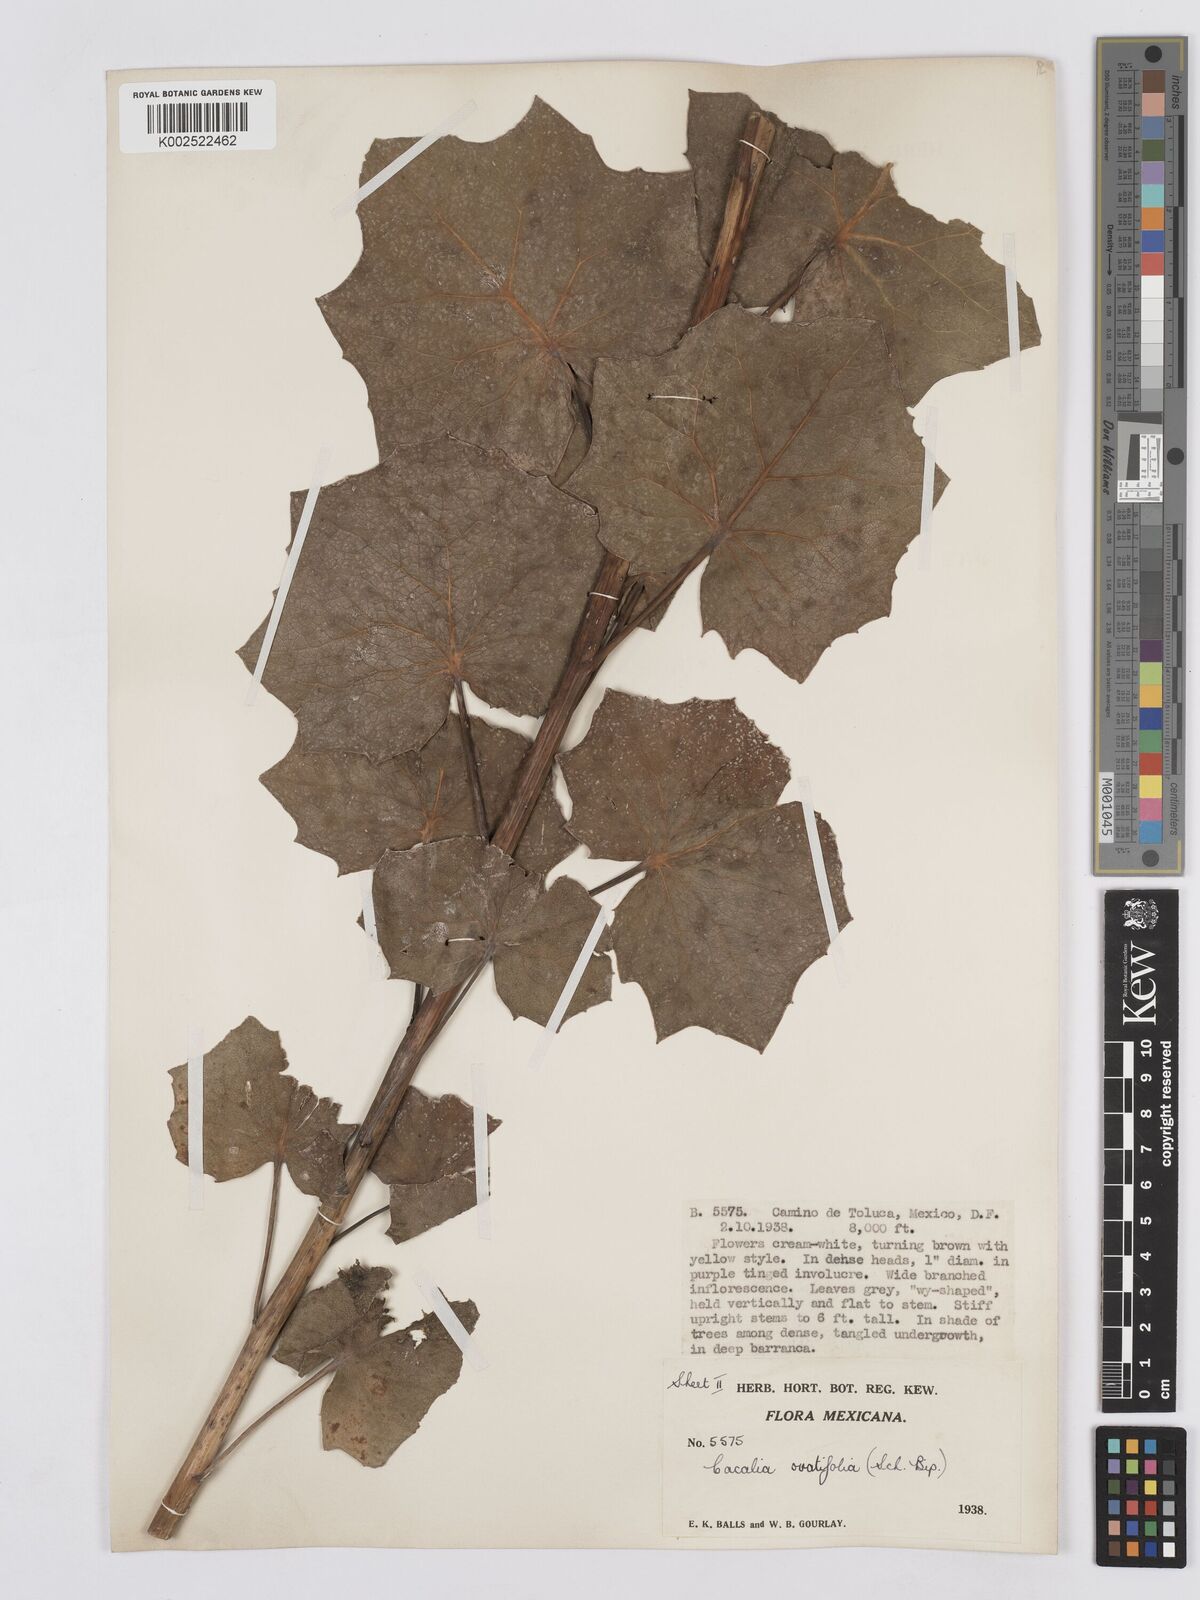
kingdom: Plantae
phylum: Tracheophyta
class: Magnoliopsida
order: Asterales
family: Asteraceae
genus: Roldana
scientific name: Roldana sessilifolia
